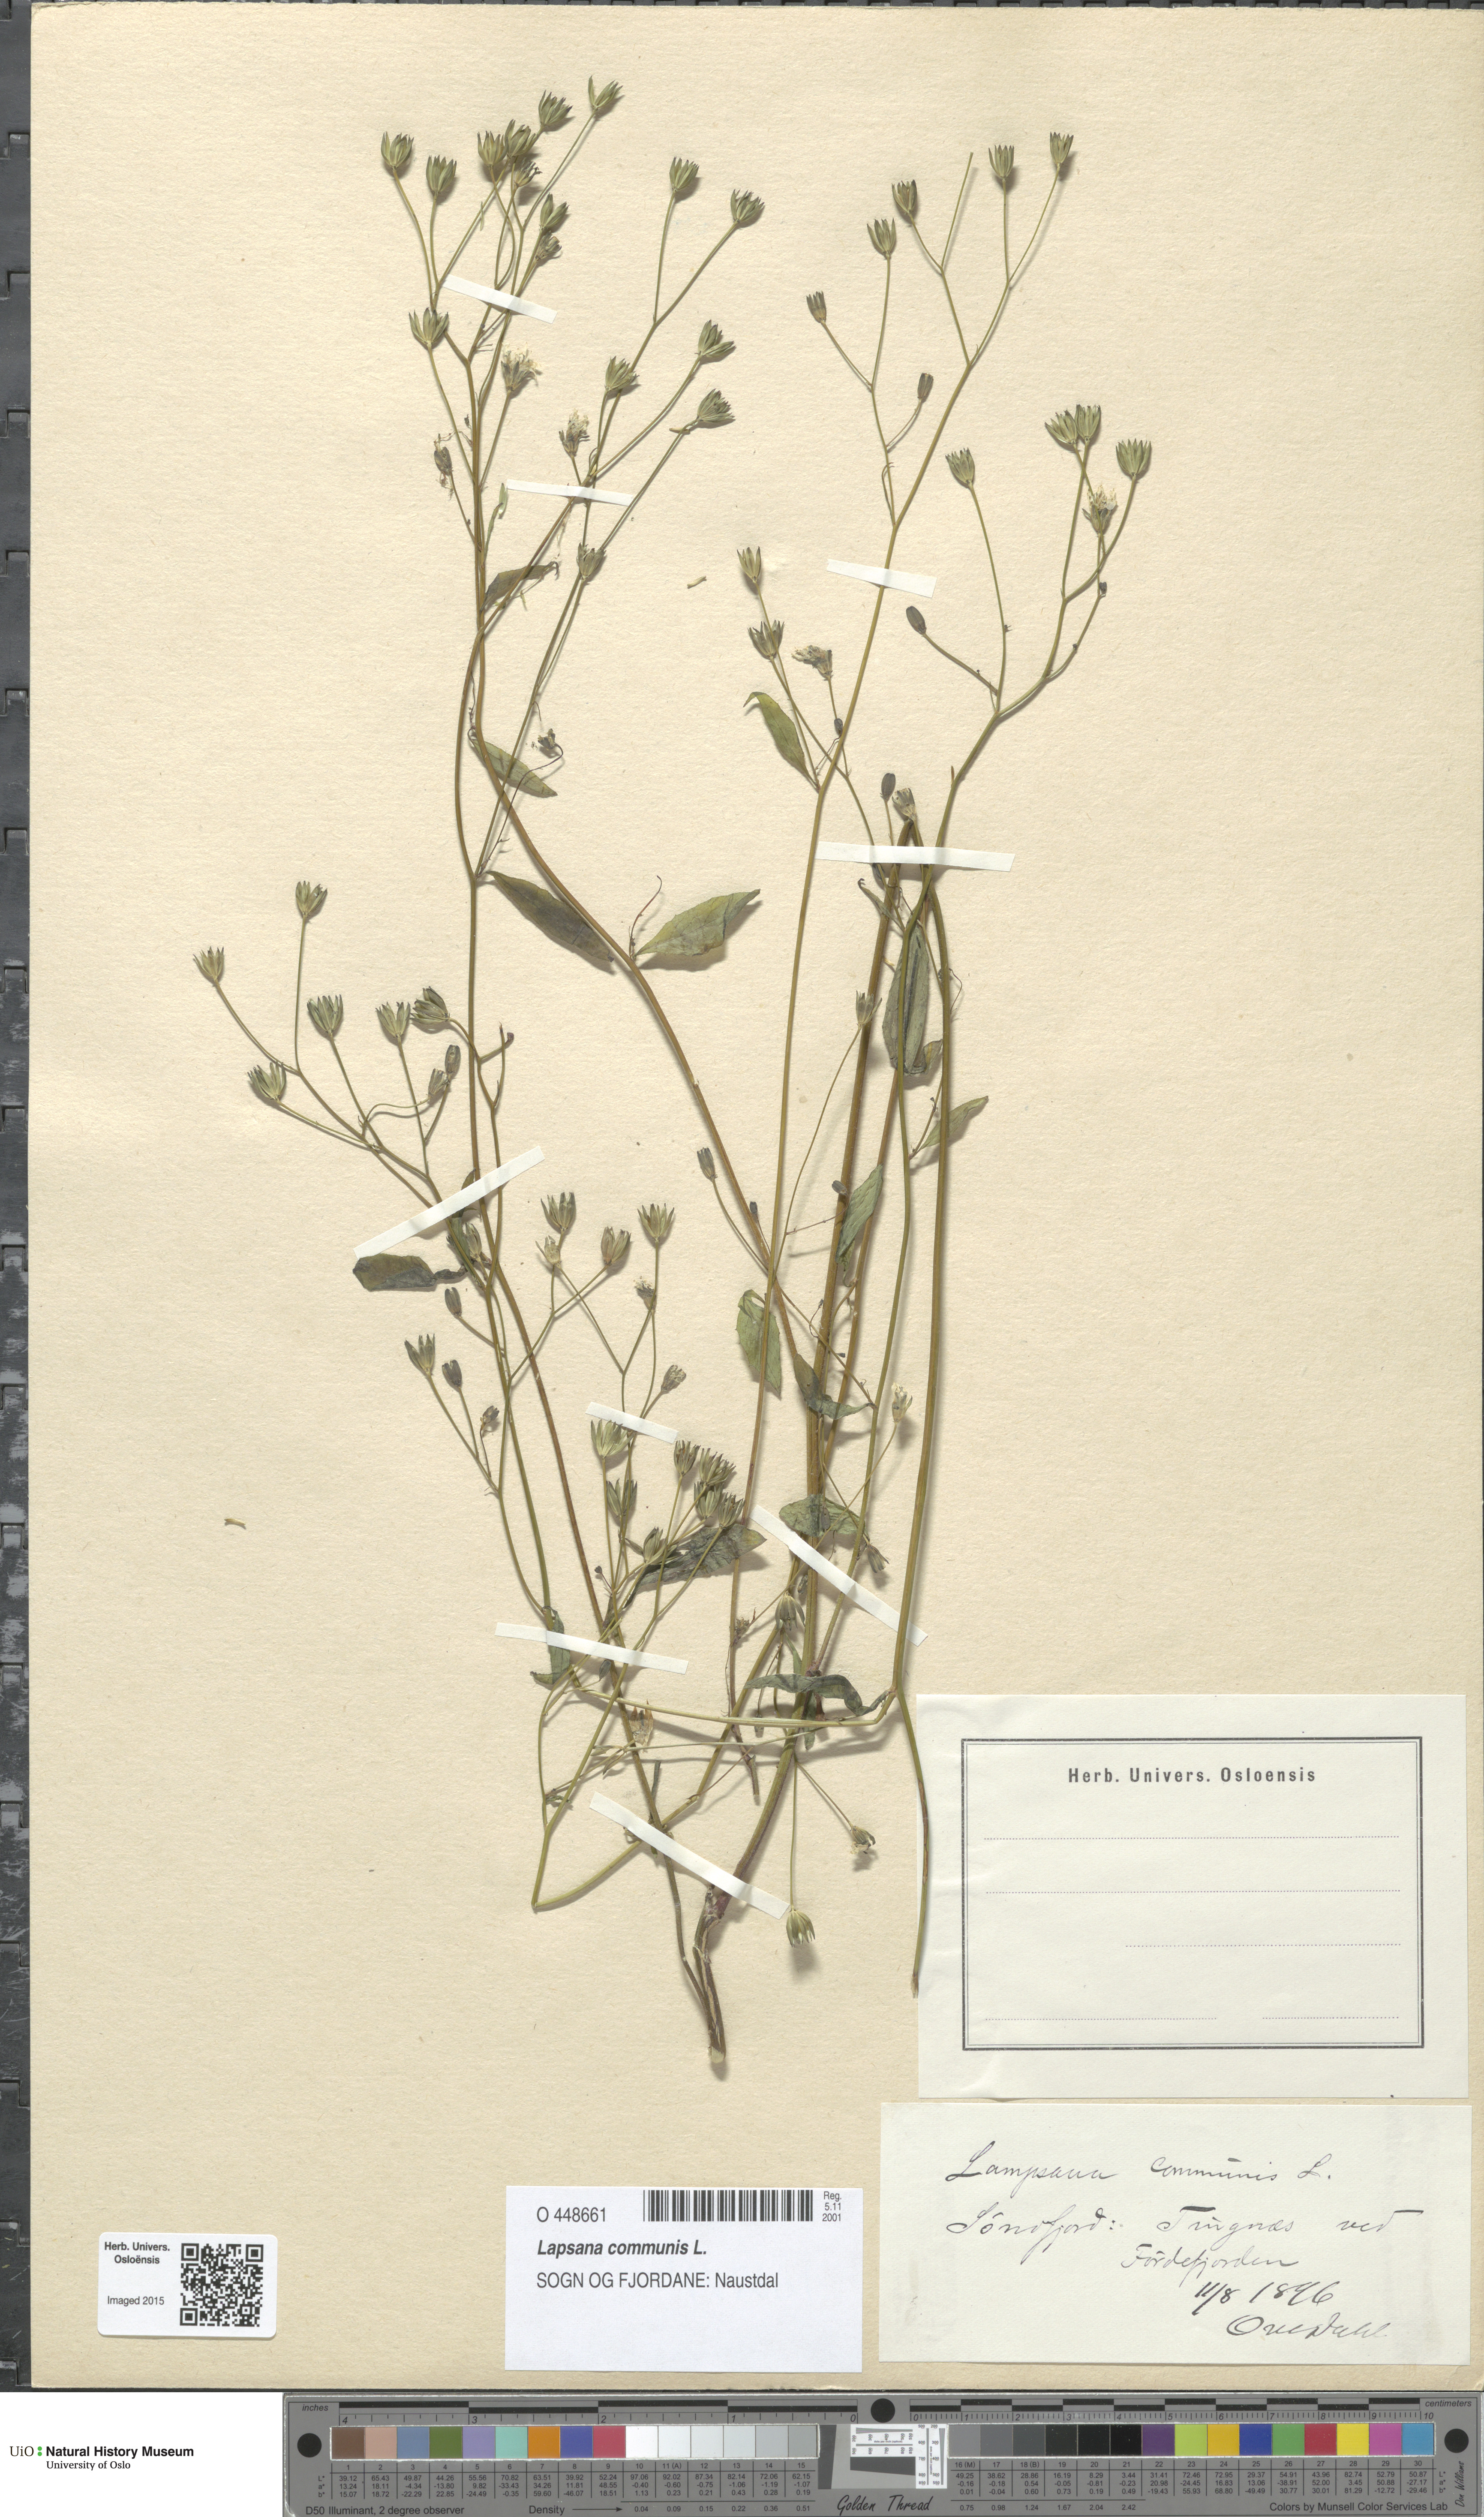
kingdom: Plantae
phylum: Tracheophyta
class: Magnoliopsida
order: Asterales
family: Asteraceae
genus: Lapsana
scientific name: Lapsana communis
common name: Nipplewort
